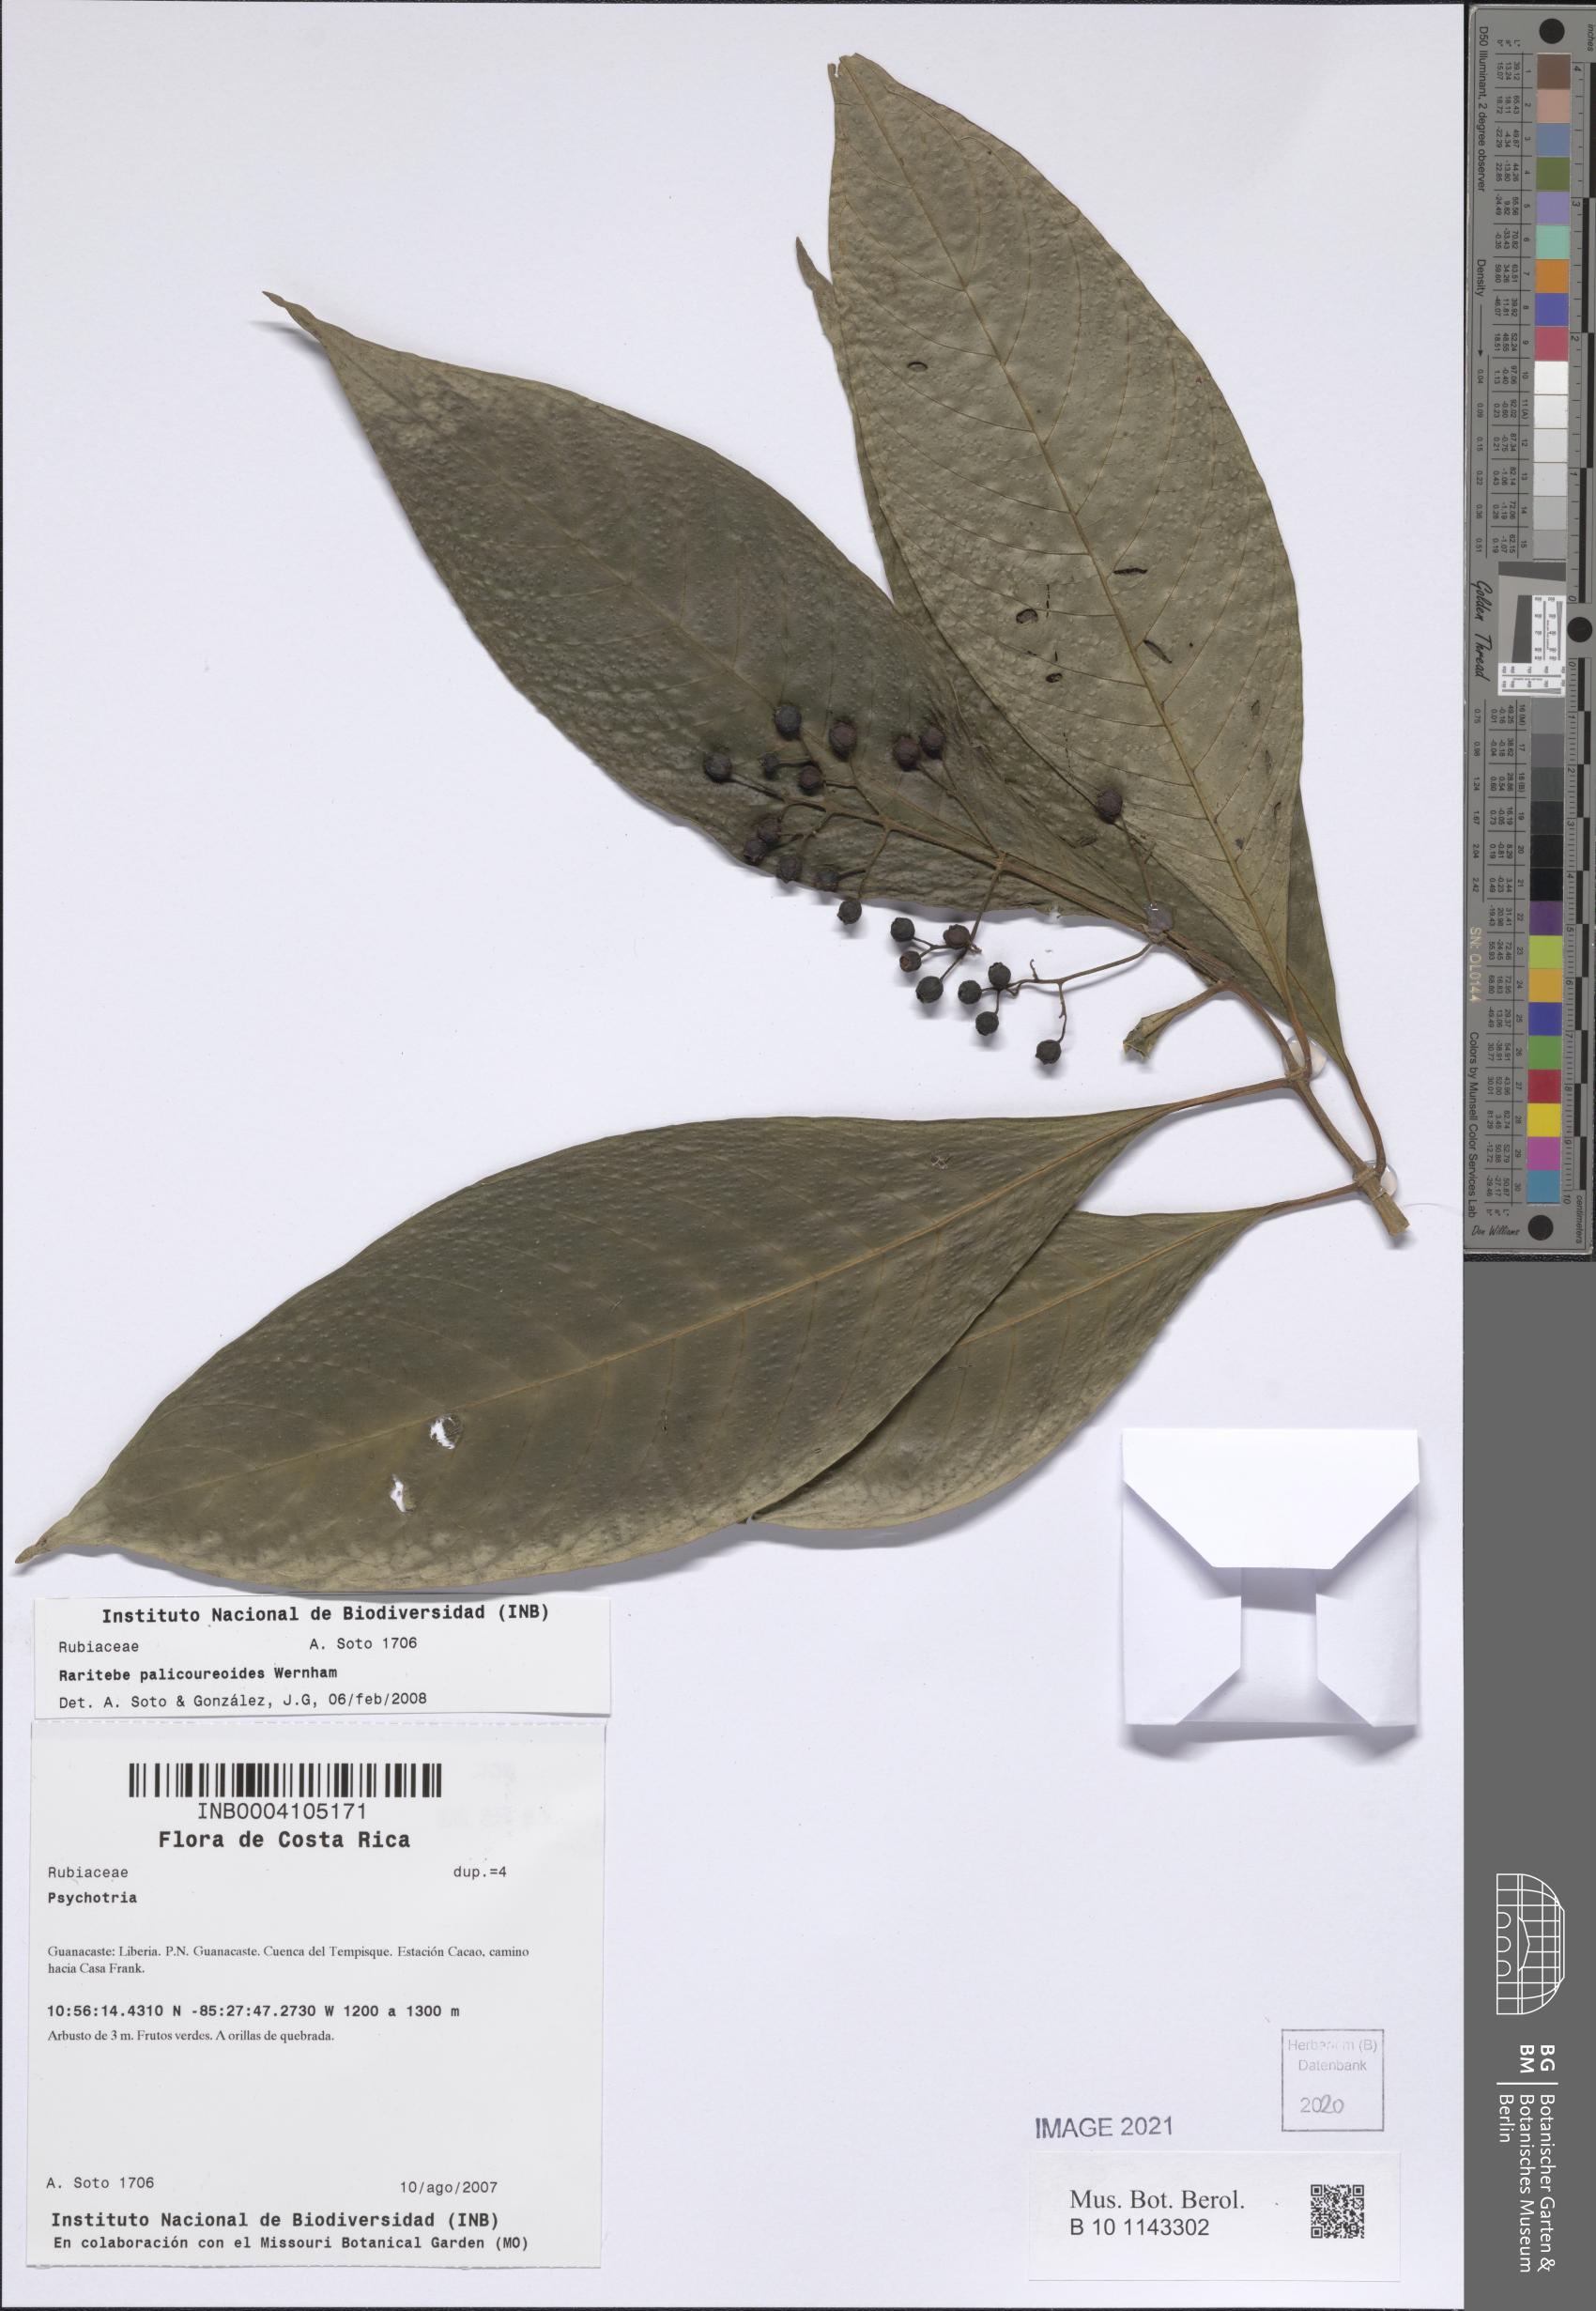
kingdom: Plantae
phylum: Tracheophyta
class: Magnoliopsida
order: Gentianales
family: Rubiaceae
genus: Raritebe
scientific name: Raritebe palicoureoides
